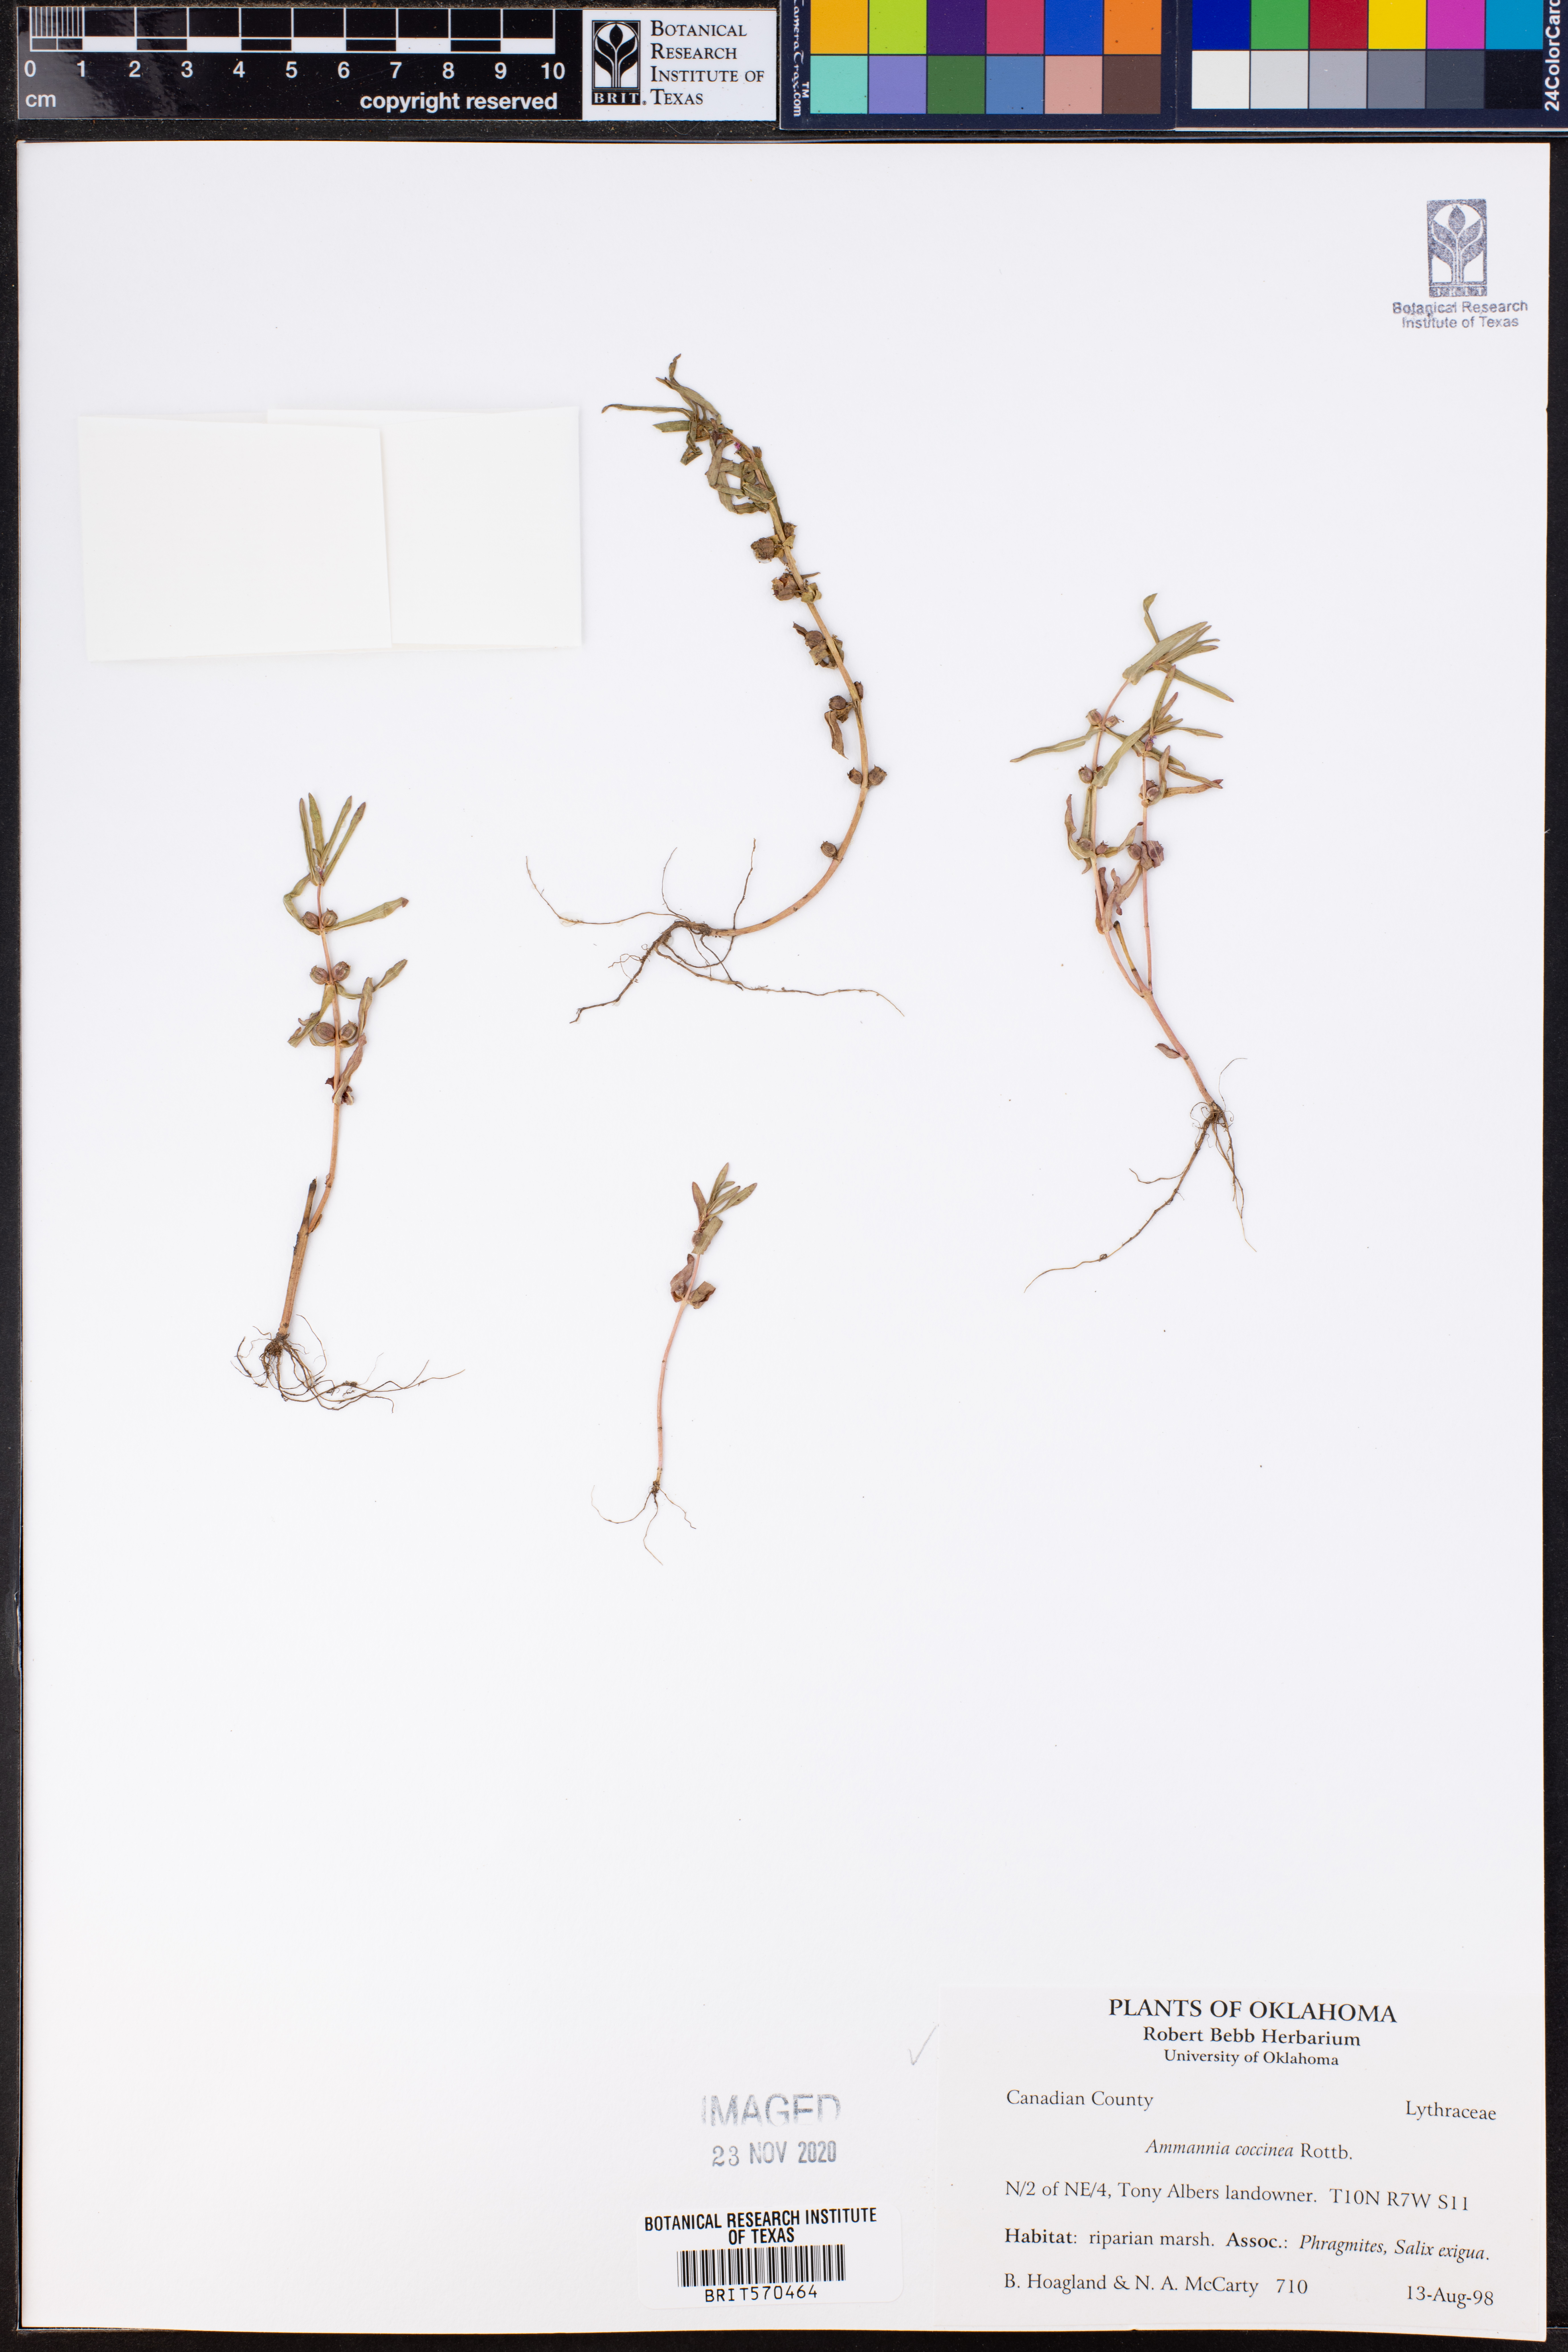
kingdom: Plantae
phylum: Tracheophyta
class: Magnoliopsida
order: Myrtales
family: Lythraceae
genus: Ammannia
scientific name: Ammannia coccinea
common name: Valley redstem
